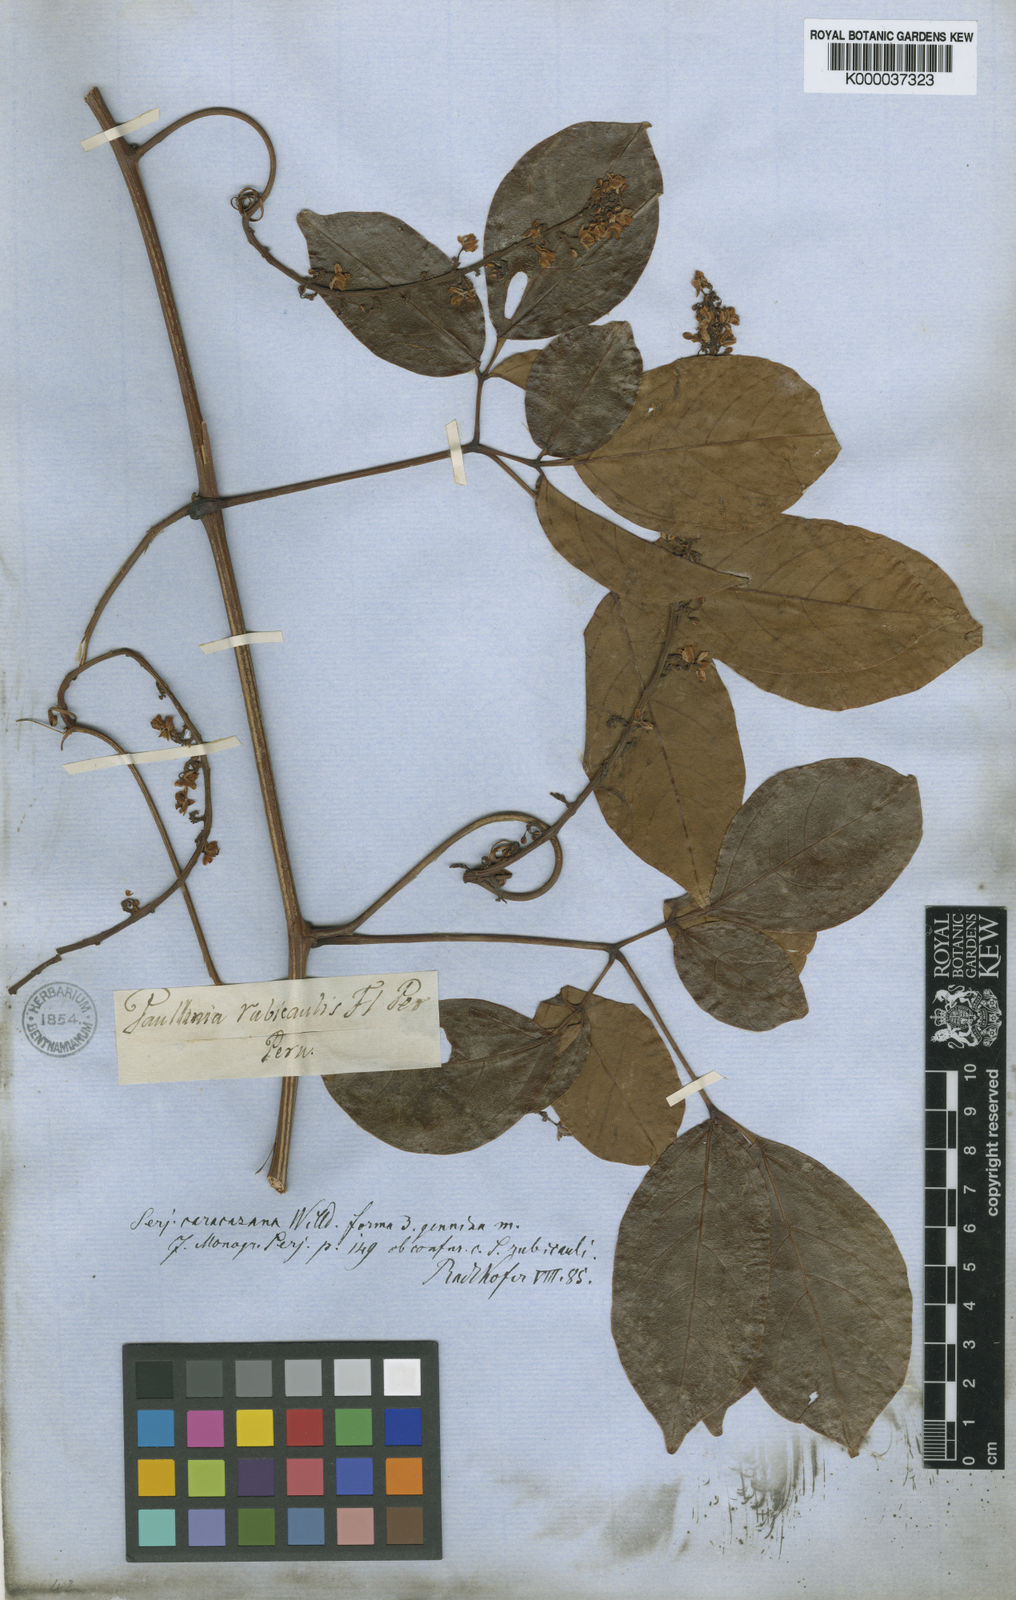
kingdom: Plantae
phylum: Tracheophyta
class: Magnoliopsida
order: Sapindales
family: Sapindaceae
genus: Serjania
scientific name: Serjania caracasana
